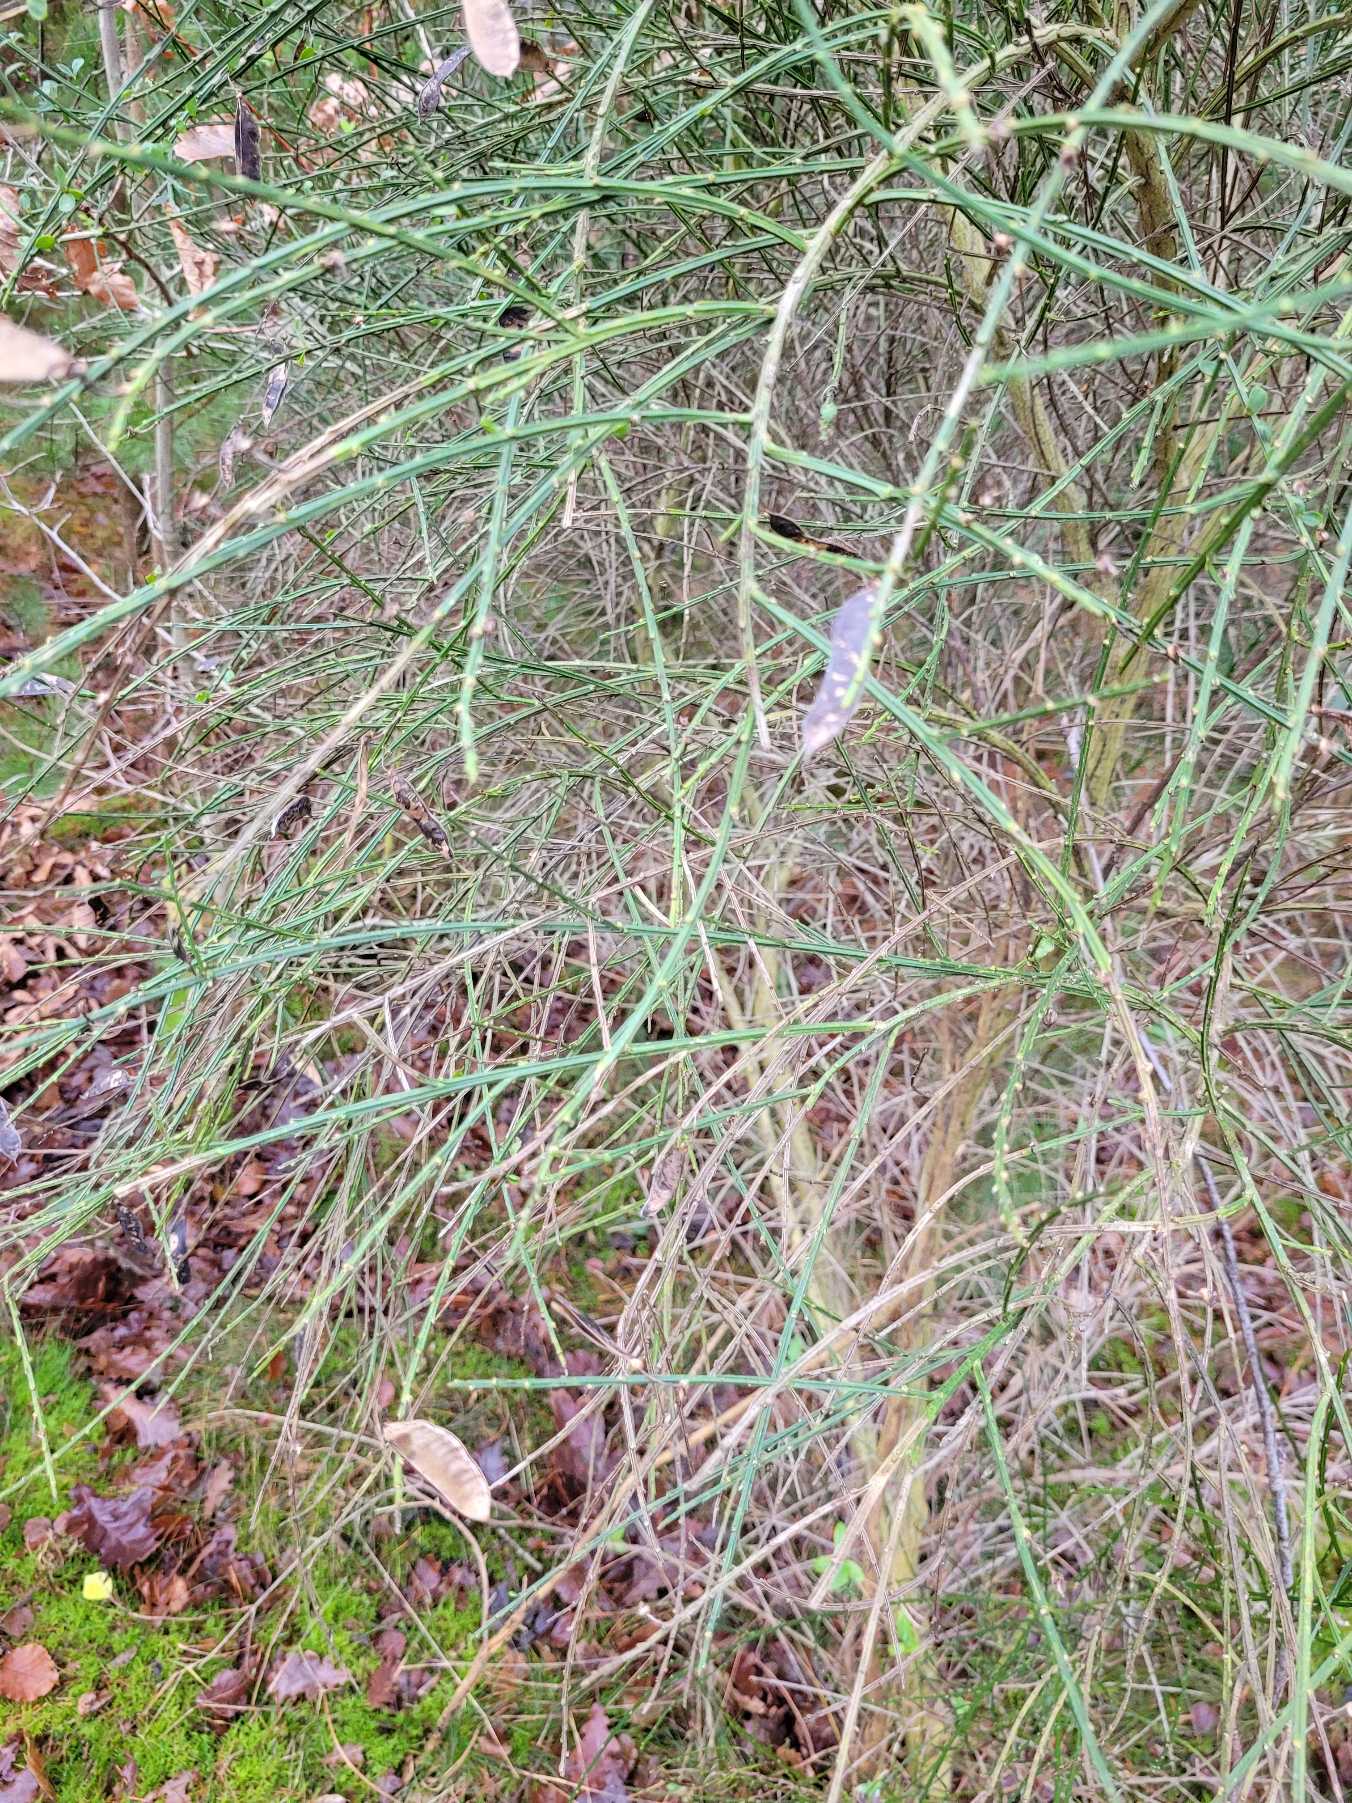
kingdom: Plantae
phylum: Tracheophyta
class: Magnoliopsida
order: Fabales
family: Fabaceae
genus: Cytisus
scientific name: Cytisus scoparius
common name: Almindelig gyvel
